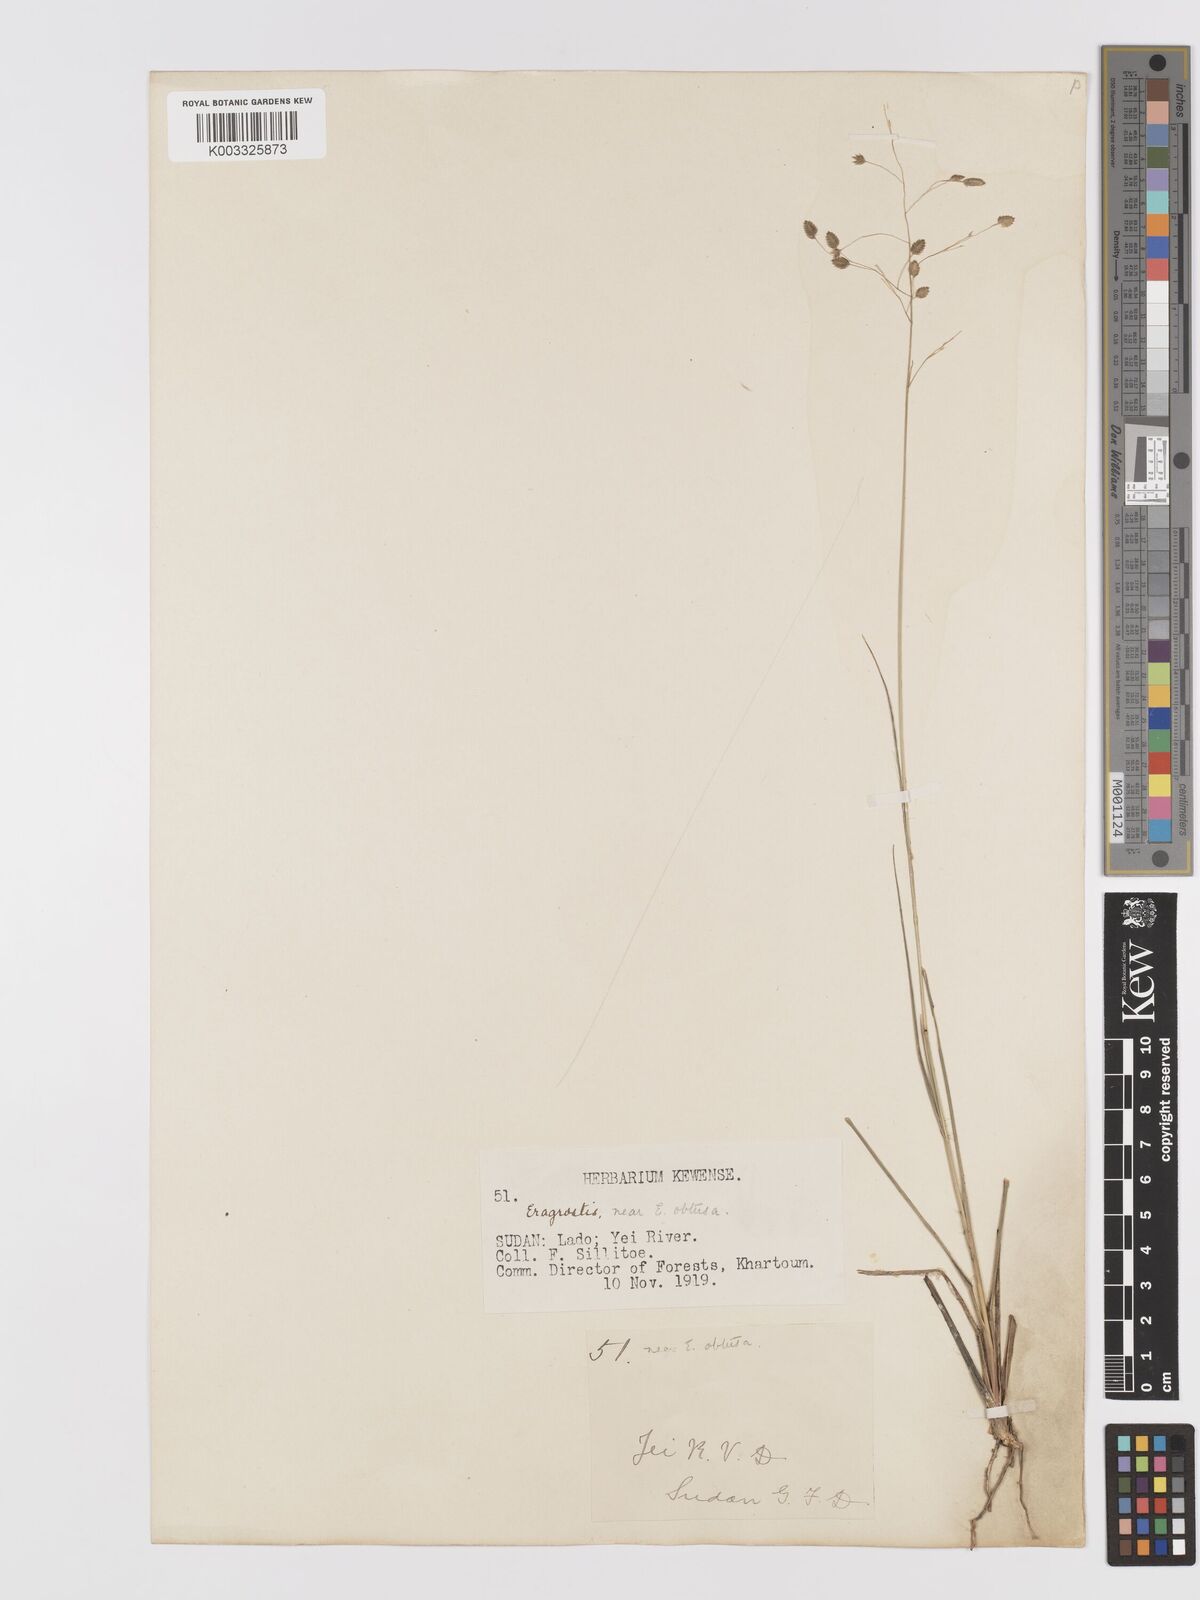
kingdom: Plantae
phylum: Tracheophyta
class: Liliopsida
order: Poales
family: Poaceae
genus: Eragrostis
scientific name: Eragrostis paniciformis
